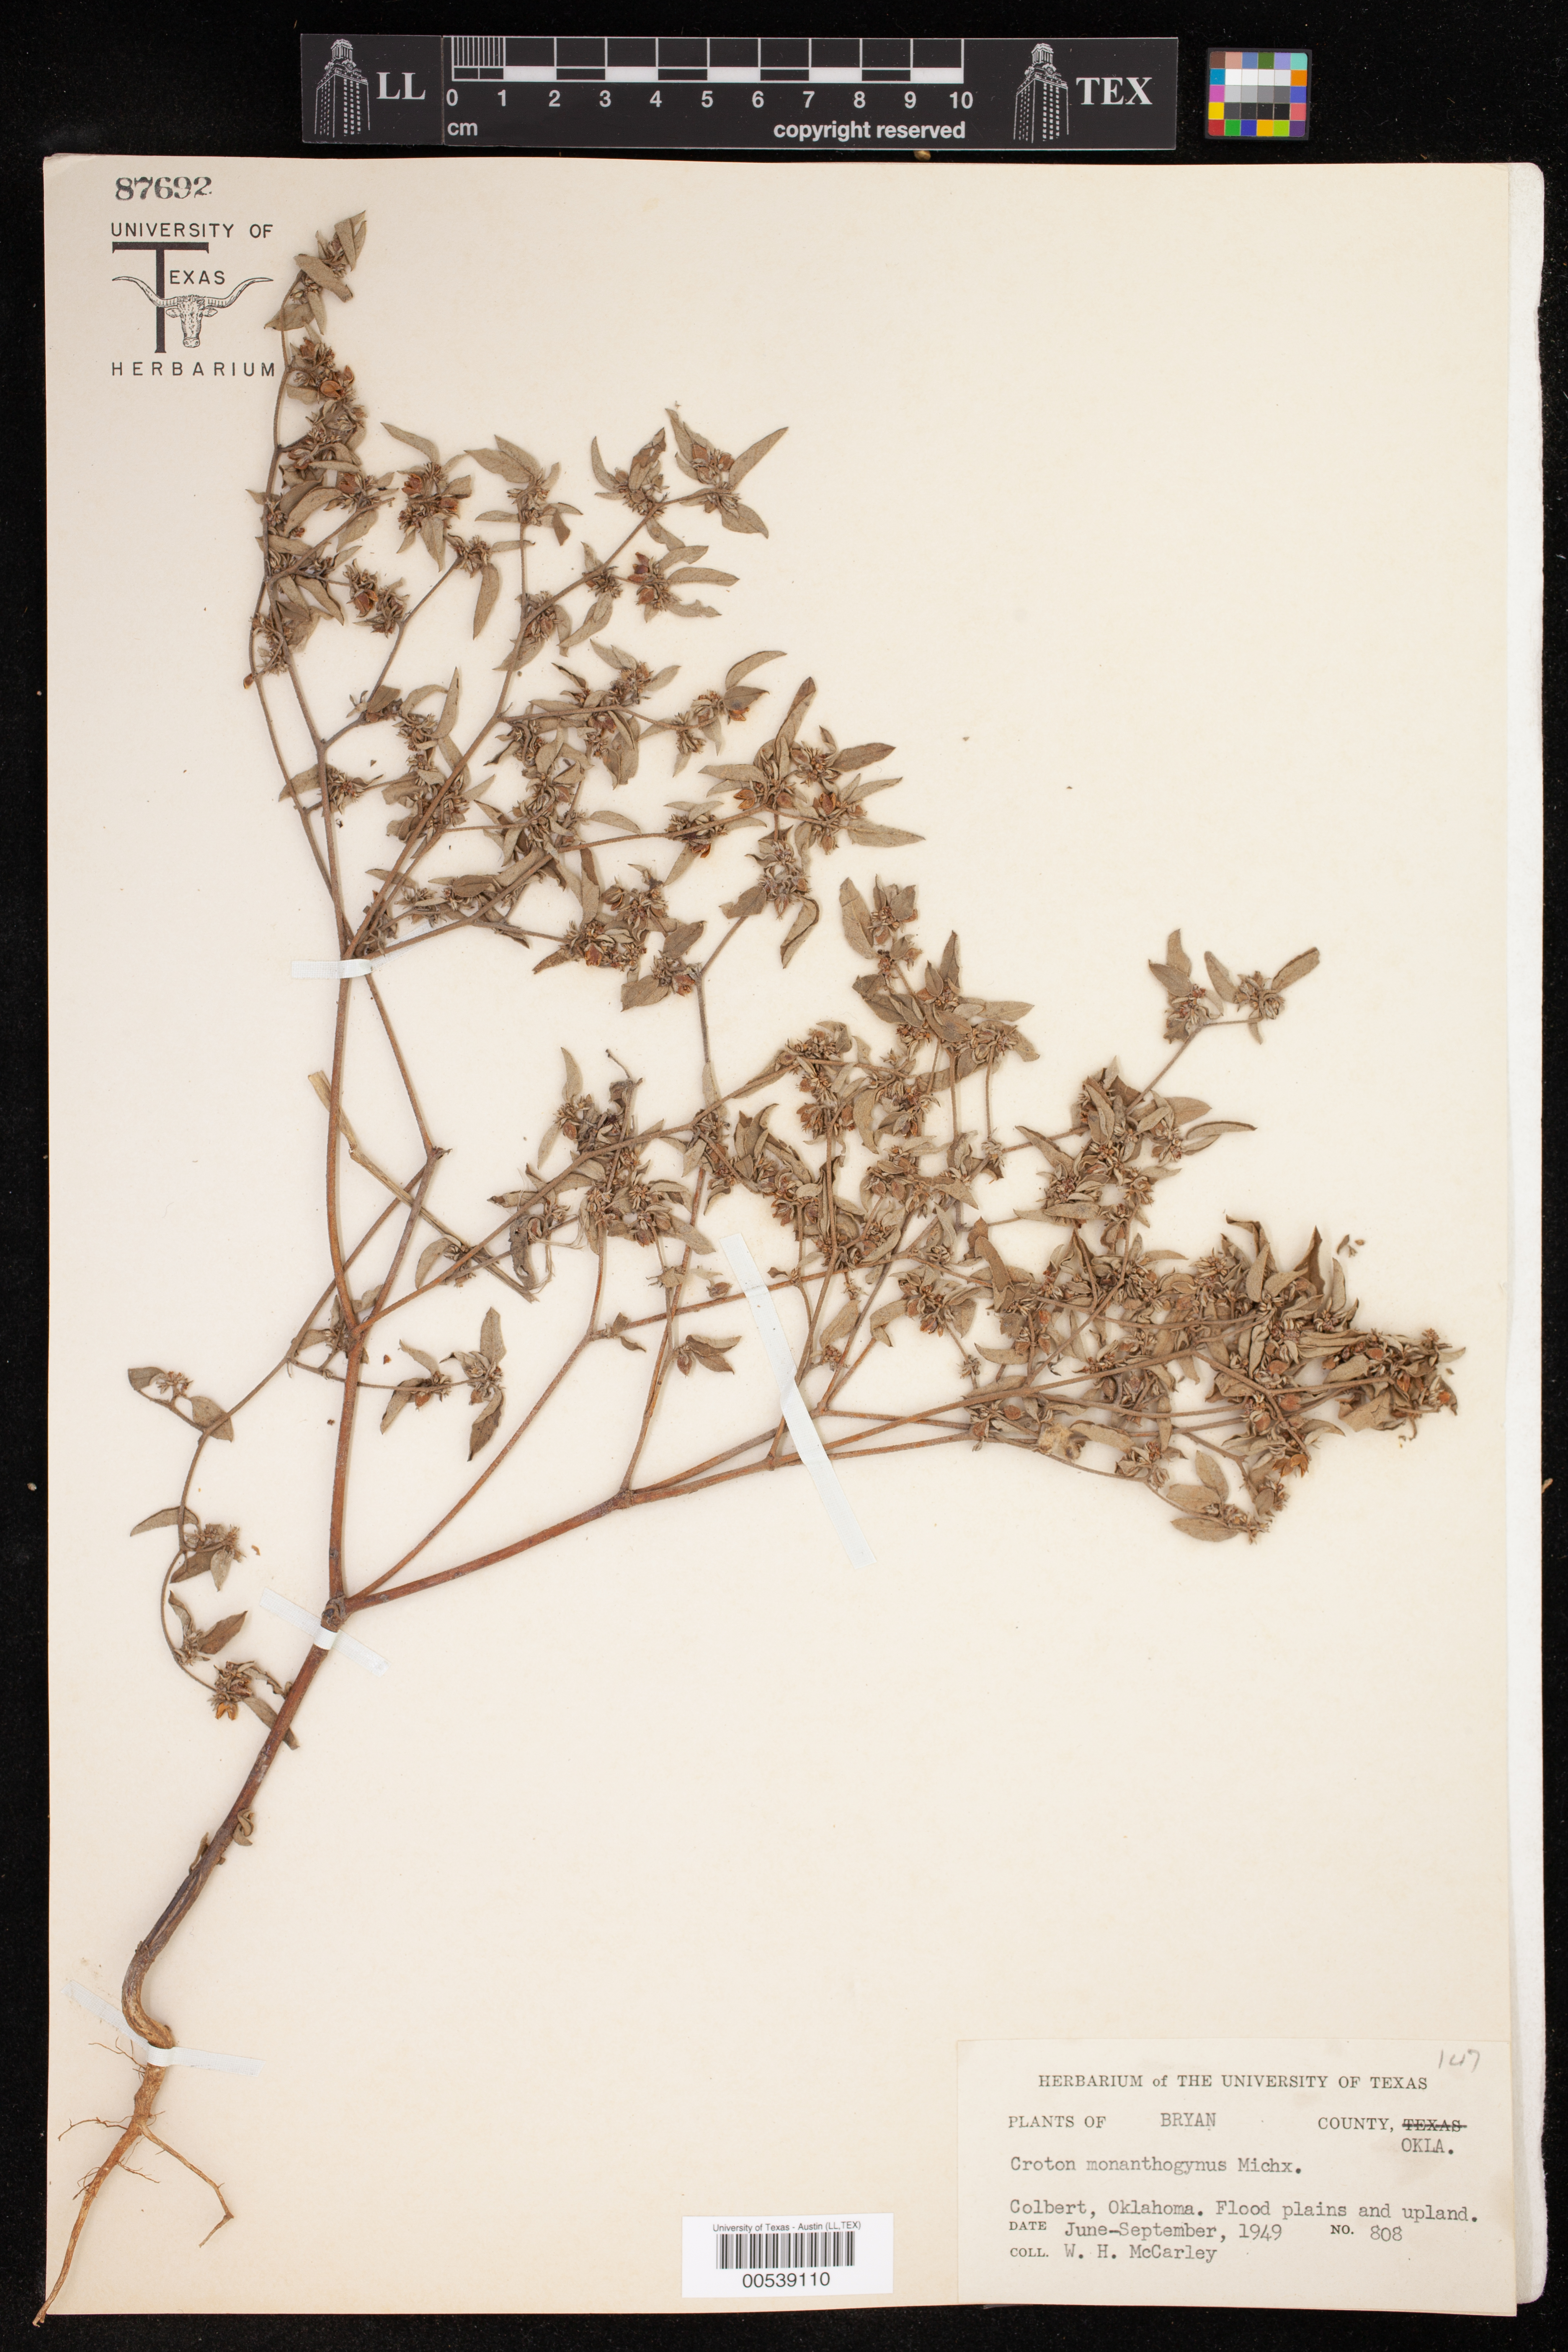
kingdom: Plantae
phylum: Tracheophyta
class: Magnoliopsida
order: Malpighiales
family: Euphorbiaceae
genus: Croton
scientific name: Croton monanthogynus
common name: One-seed croton
